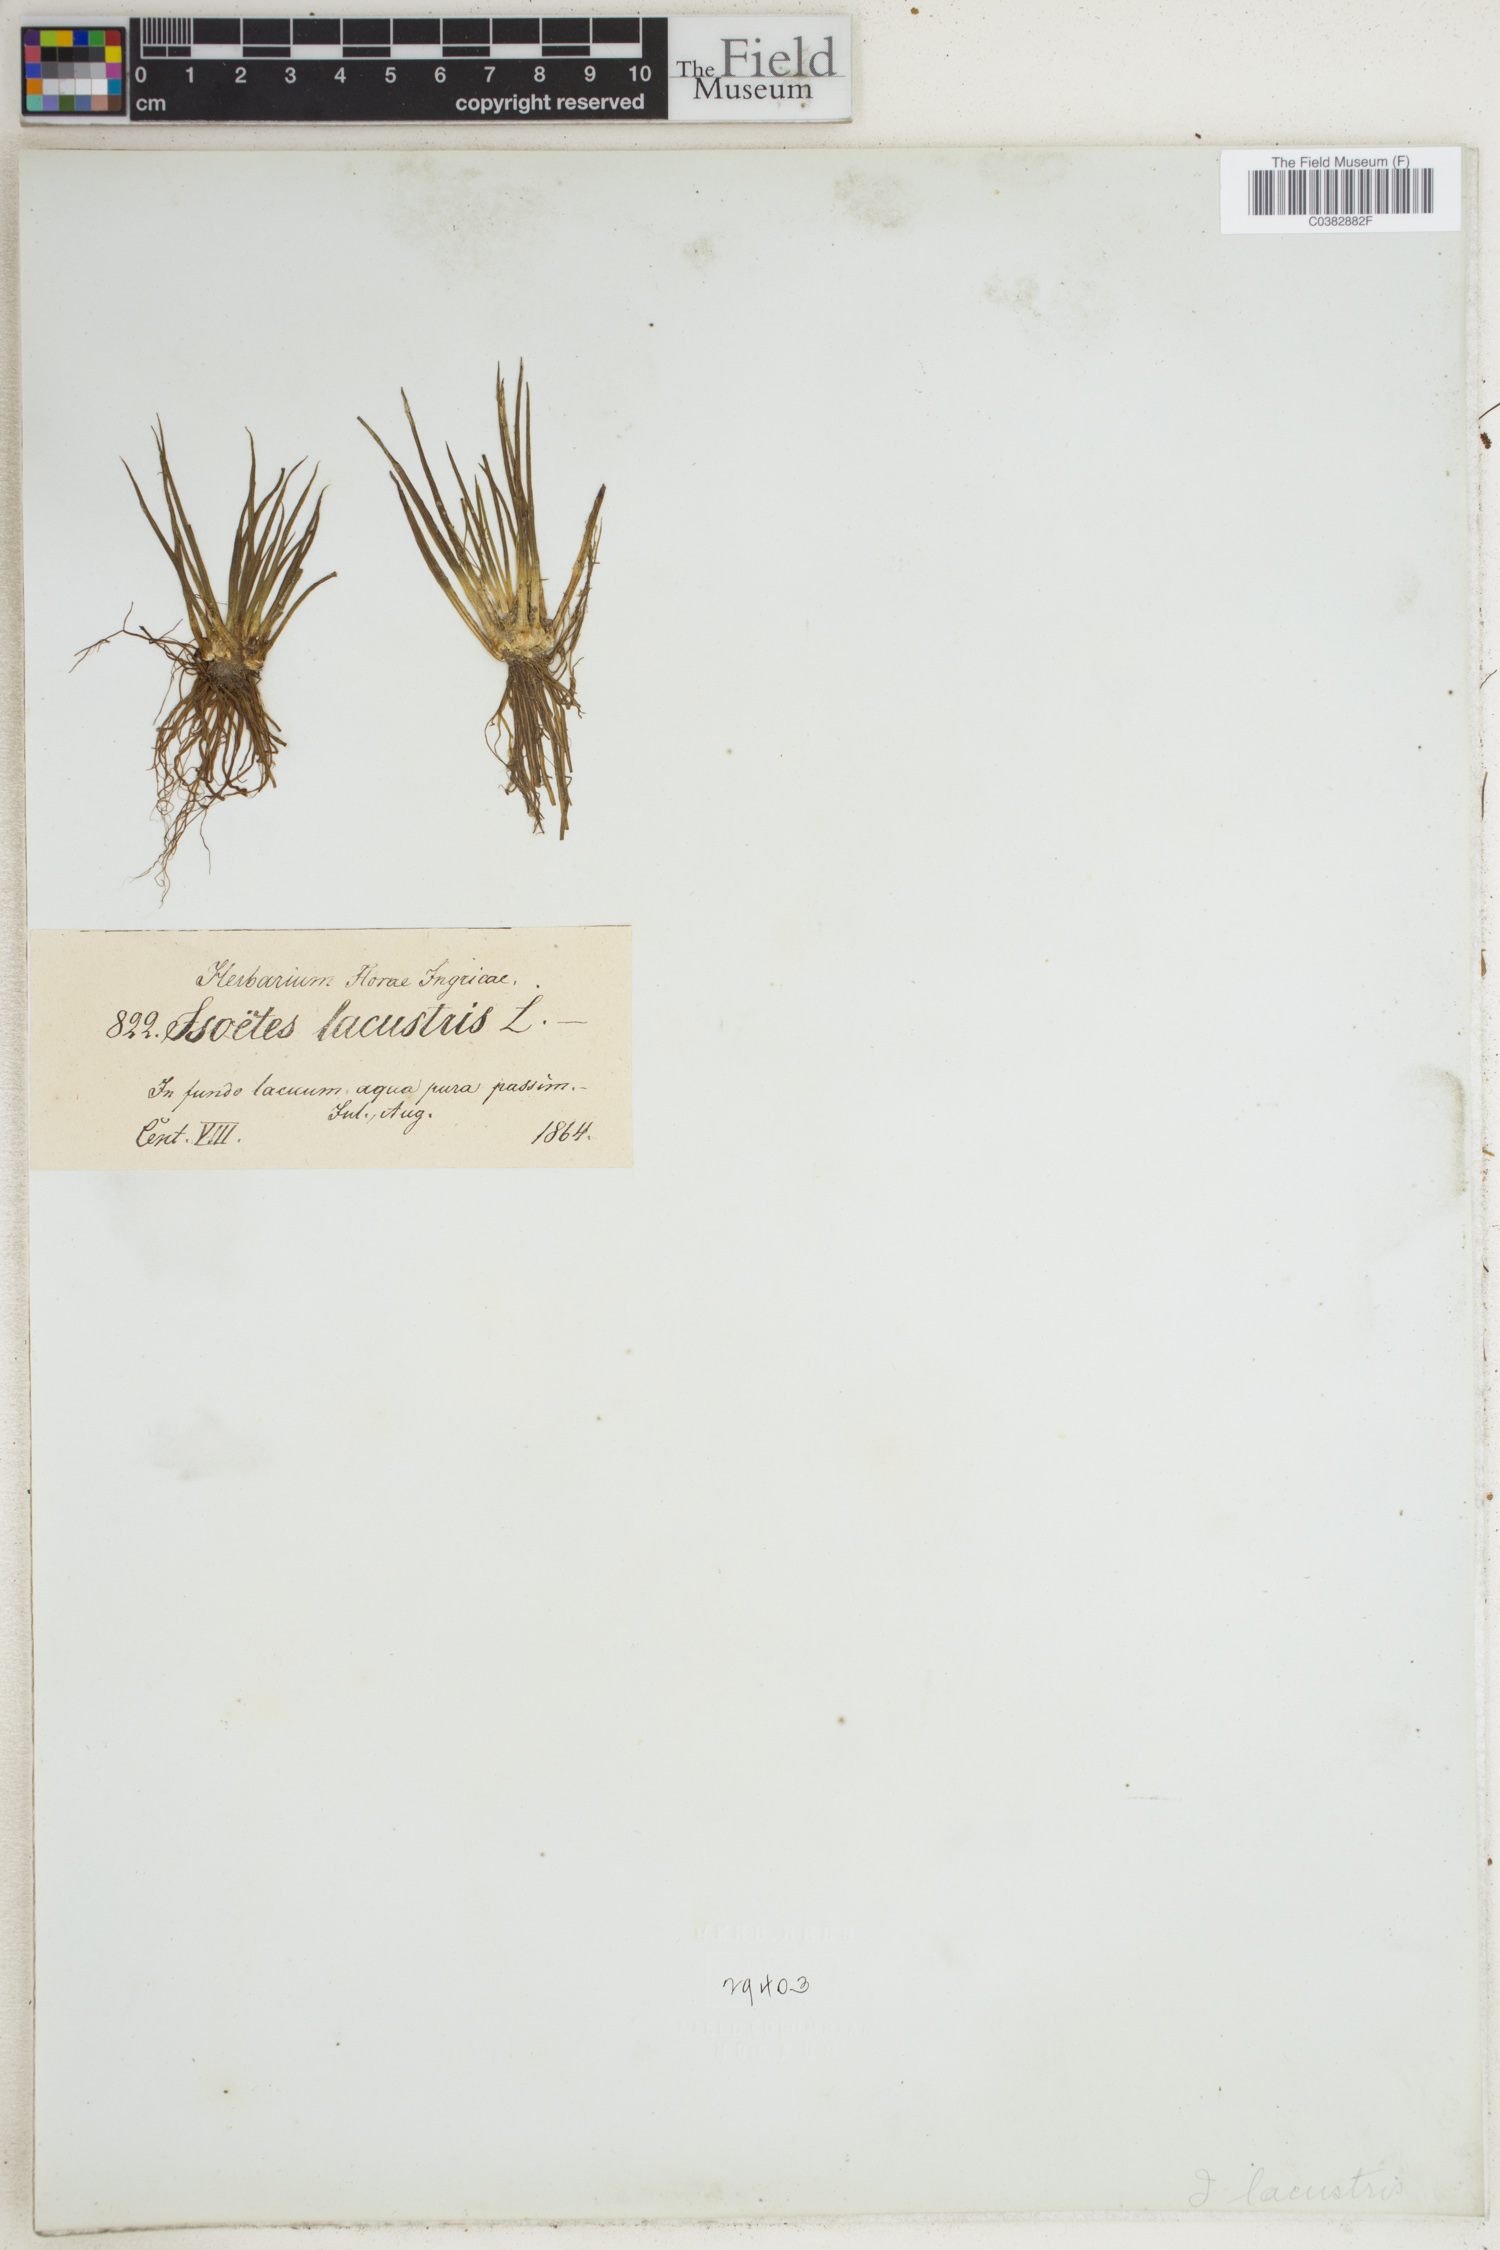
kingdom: Plantae
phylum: Tracheophyta
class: Lycopodiopsida
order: Isoetales
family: Isoetaceae
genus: Isoetes
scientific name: Isoetes lacustris
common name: Common quillwort
